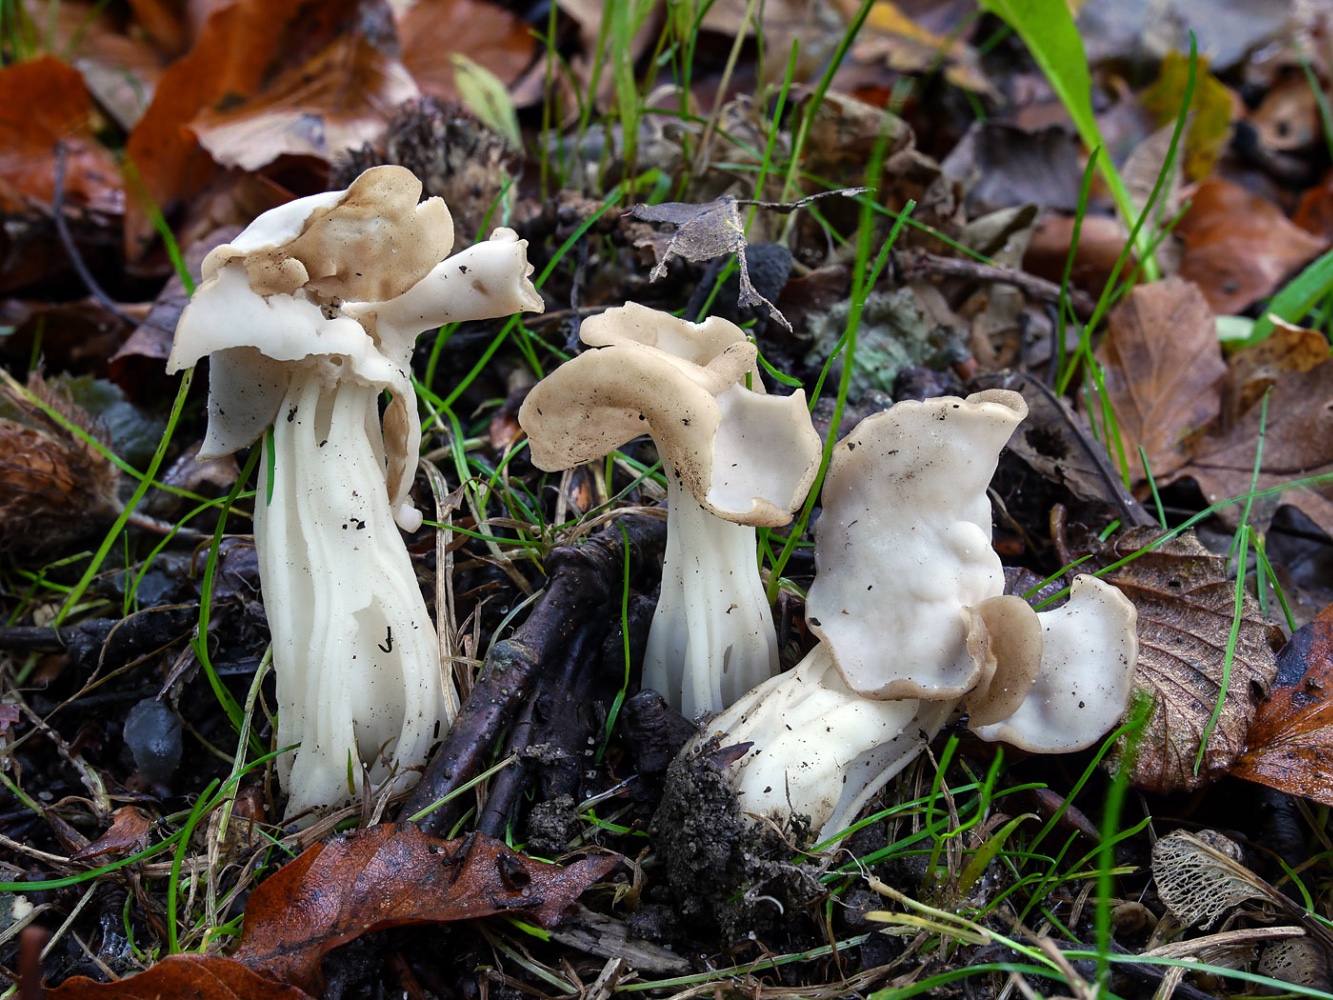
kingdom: Fungi
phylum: Ascomycota
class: Pezizomycetes
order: Pezizales
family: Helvellaceae
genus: Helvella
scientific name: Helvella crispa
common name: kruset foldhat
